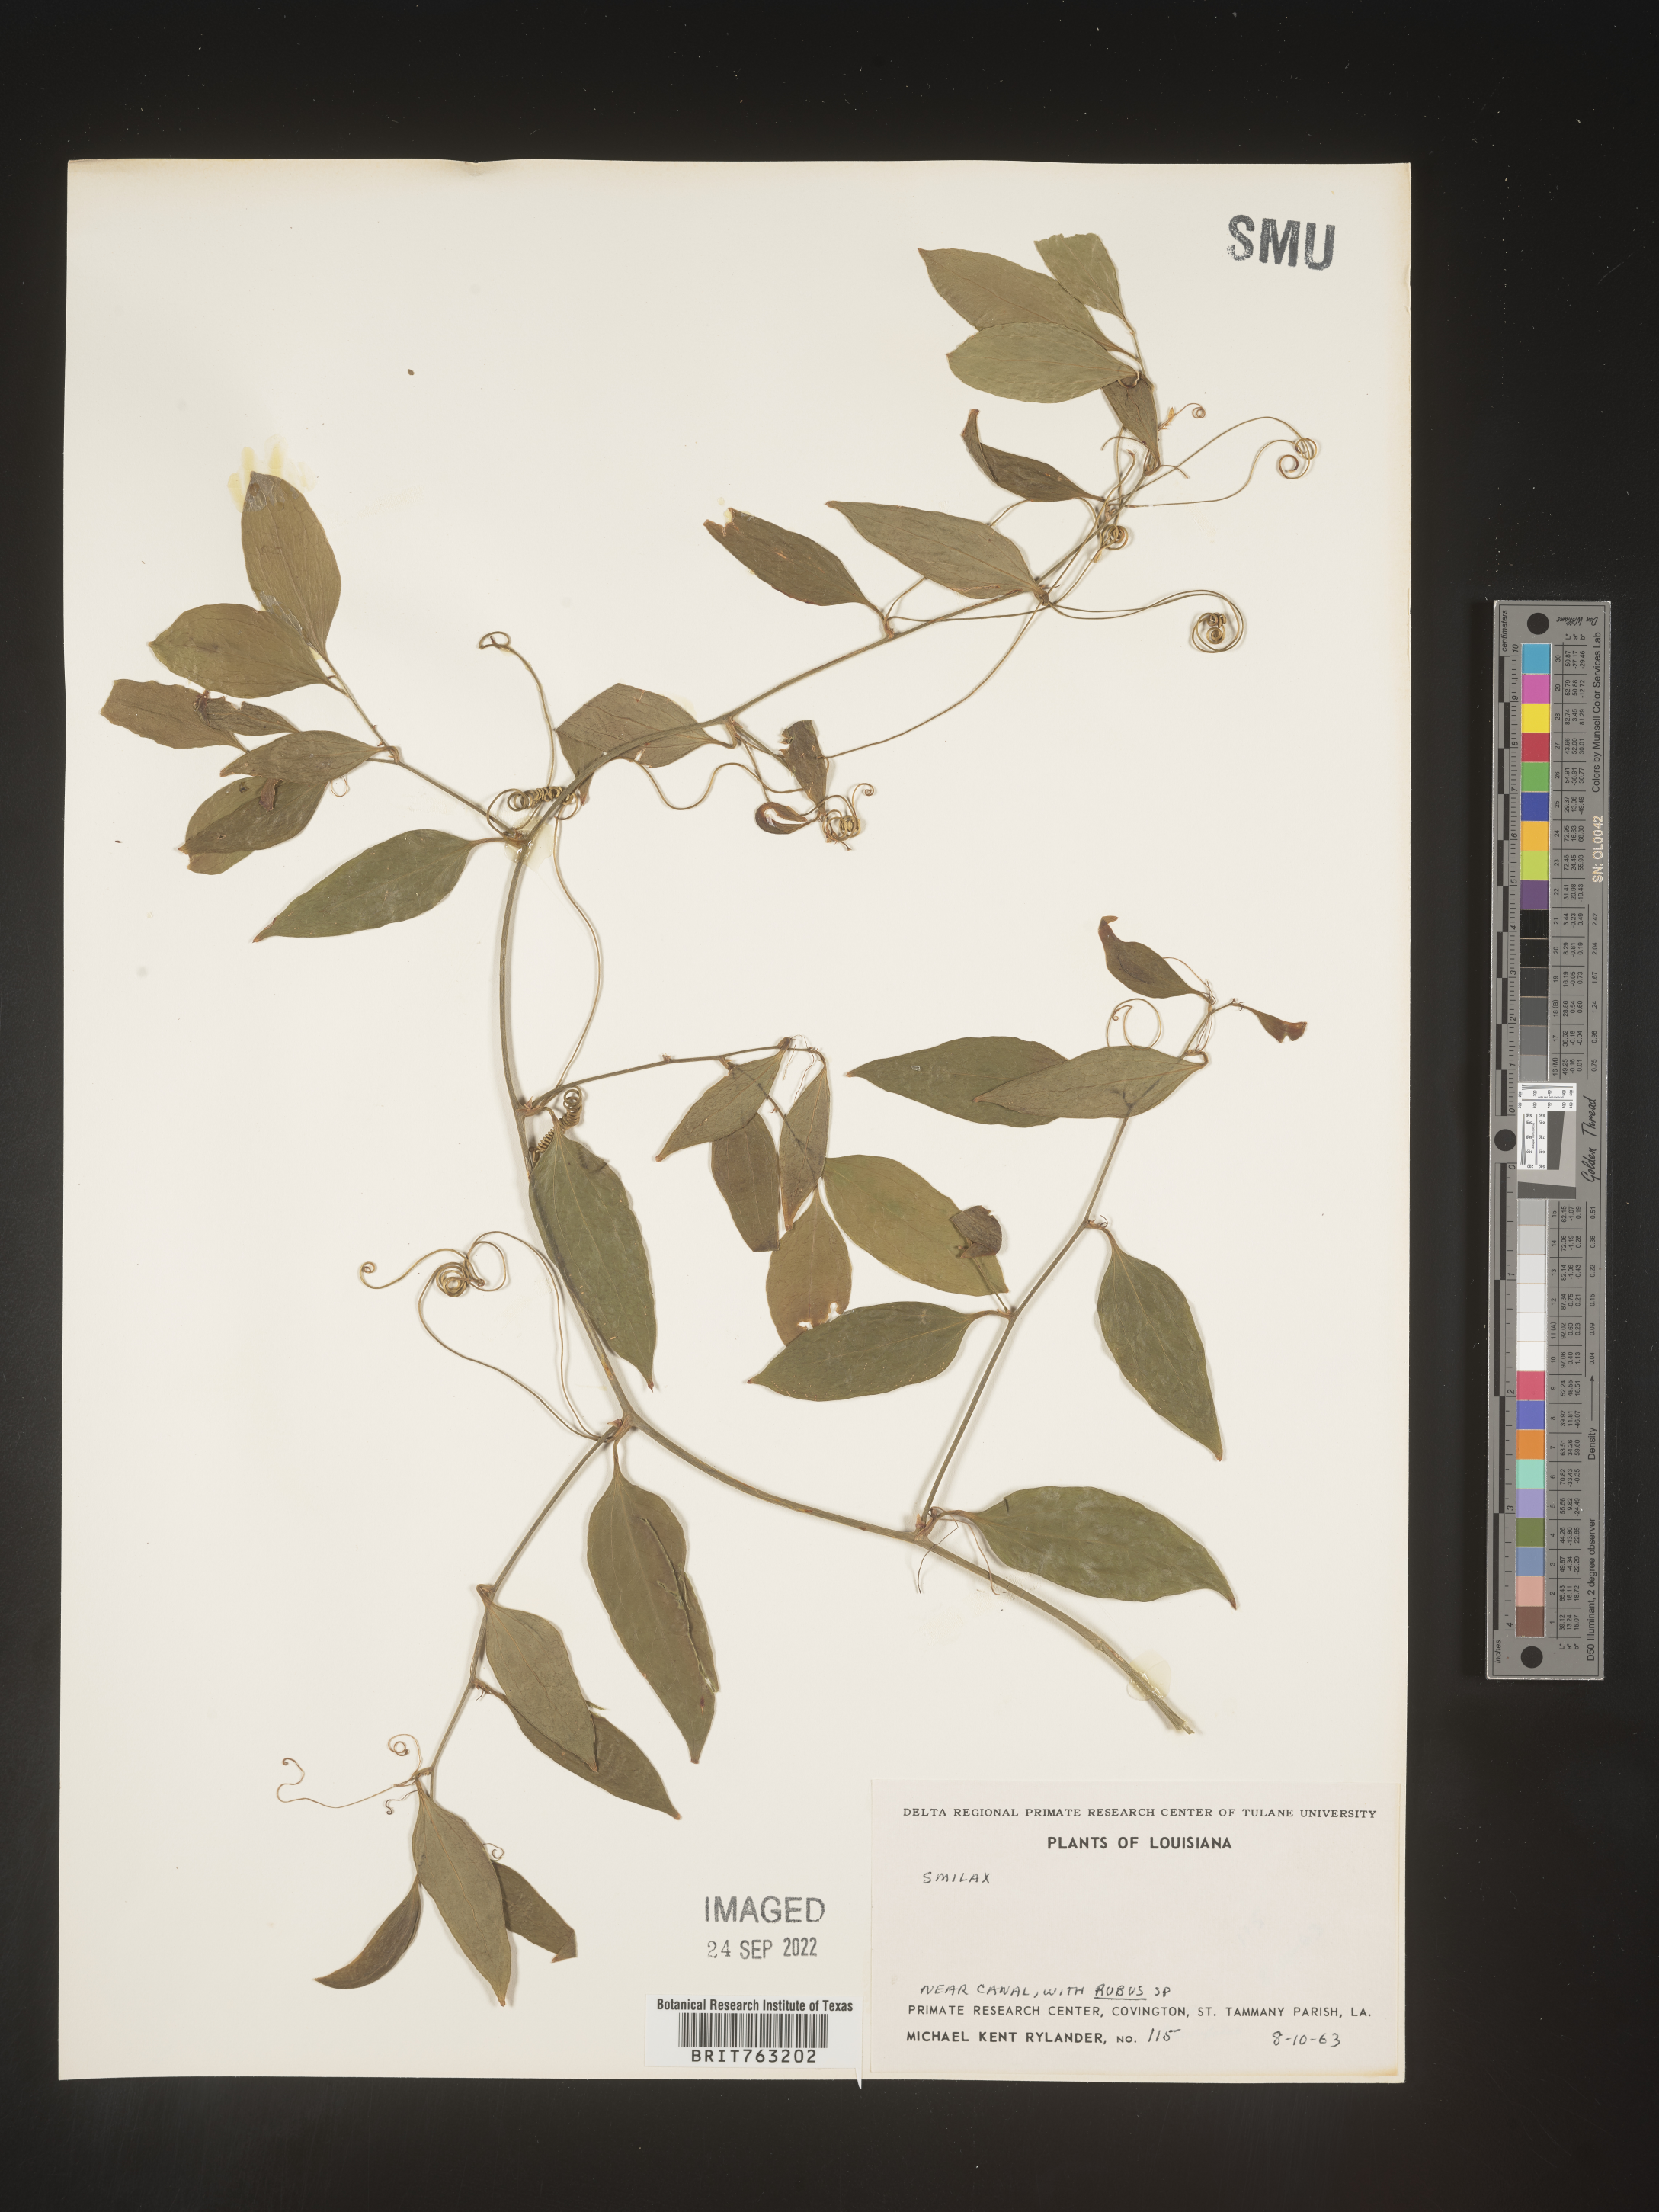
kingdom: Plantae
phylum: Tracheophyta
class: Magnoliopsida
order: Lamiales
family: Bignoniaceae
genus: Bignonia
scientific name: Bignonia capreolata
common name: Crossvine
